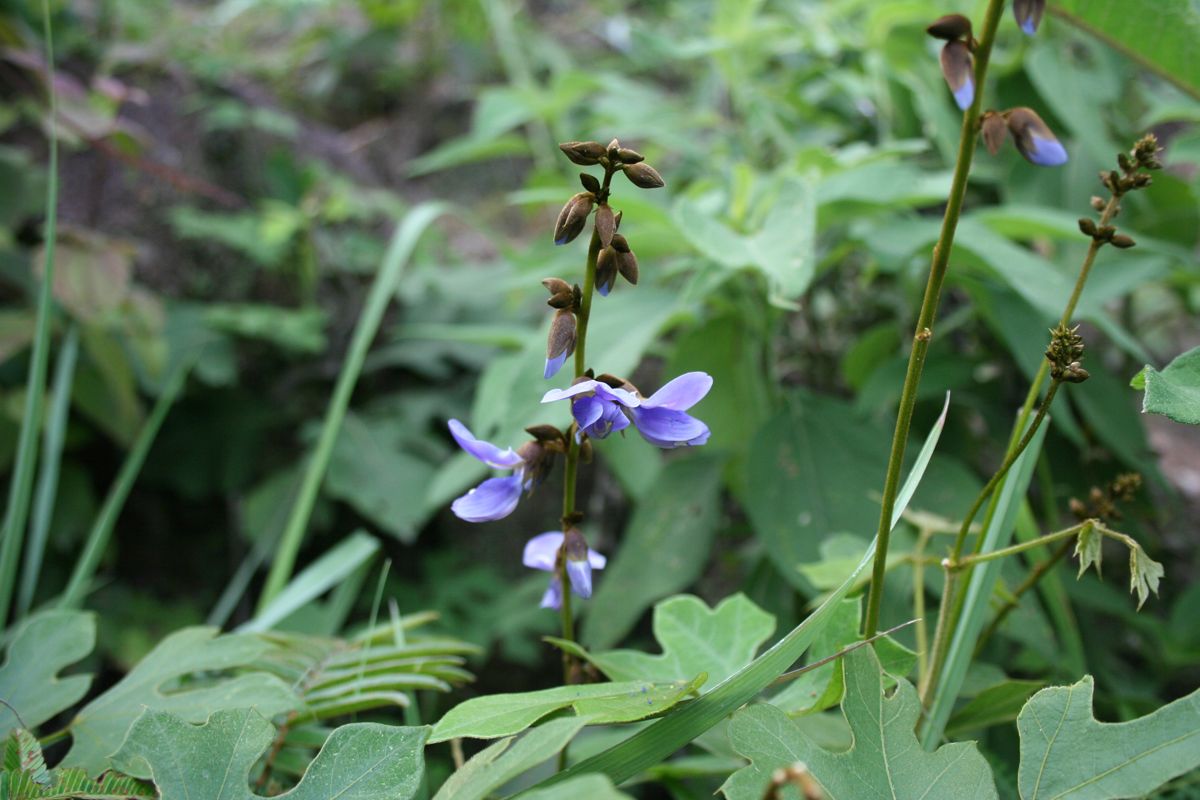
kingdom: Plantae
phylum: Tracheophyta
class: Magnoliopsida
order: Fabales
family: Fabaceae
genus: Pachyrhizus
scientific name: Pachyrhizus erosus
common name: Yam bean
